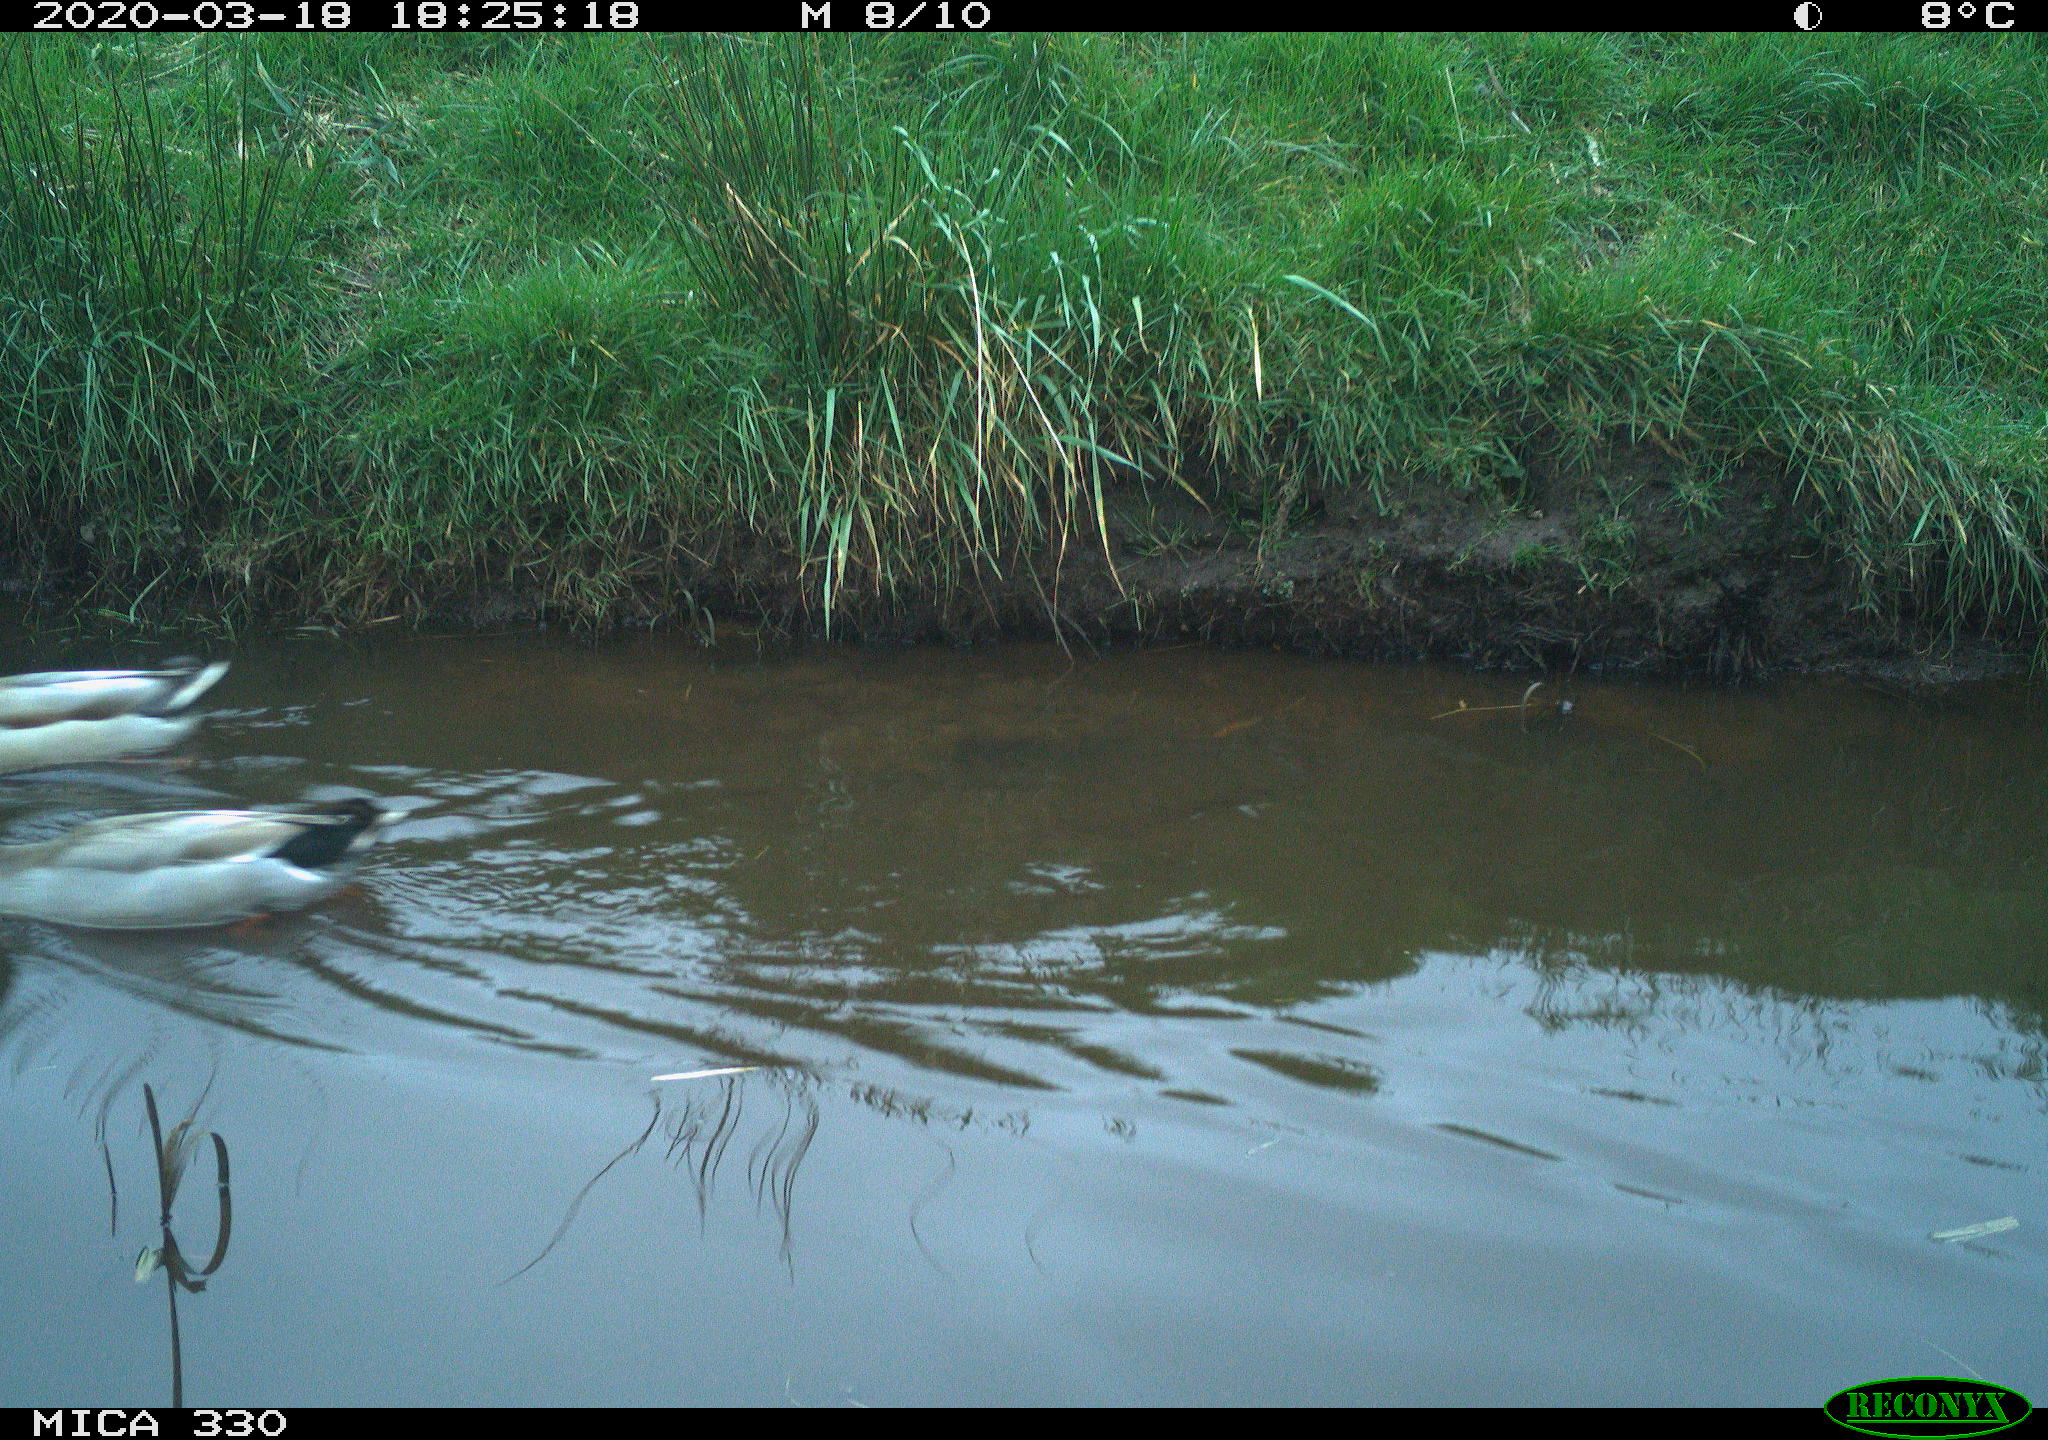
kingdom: Animalia
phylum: Chordata
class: Aves
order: Anseriformes
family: Anatidae
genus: Anas
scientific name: Anas platyrhynchos
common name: Mallard
